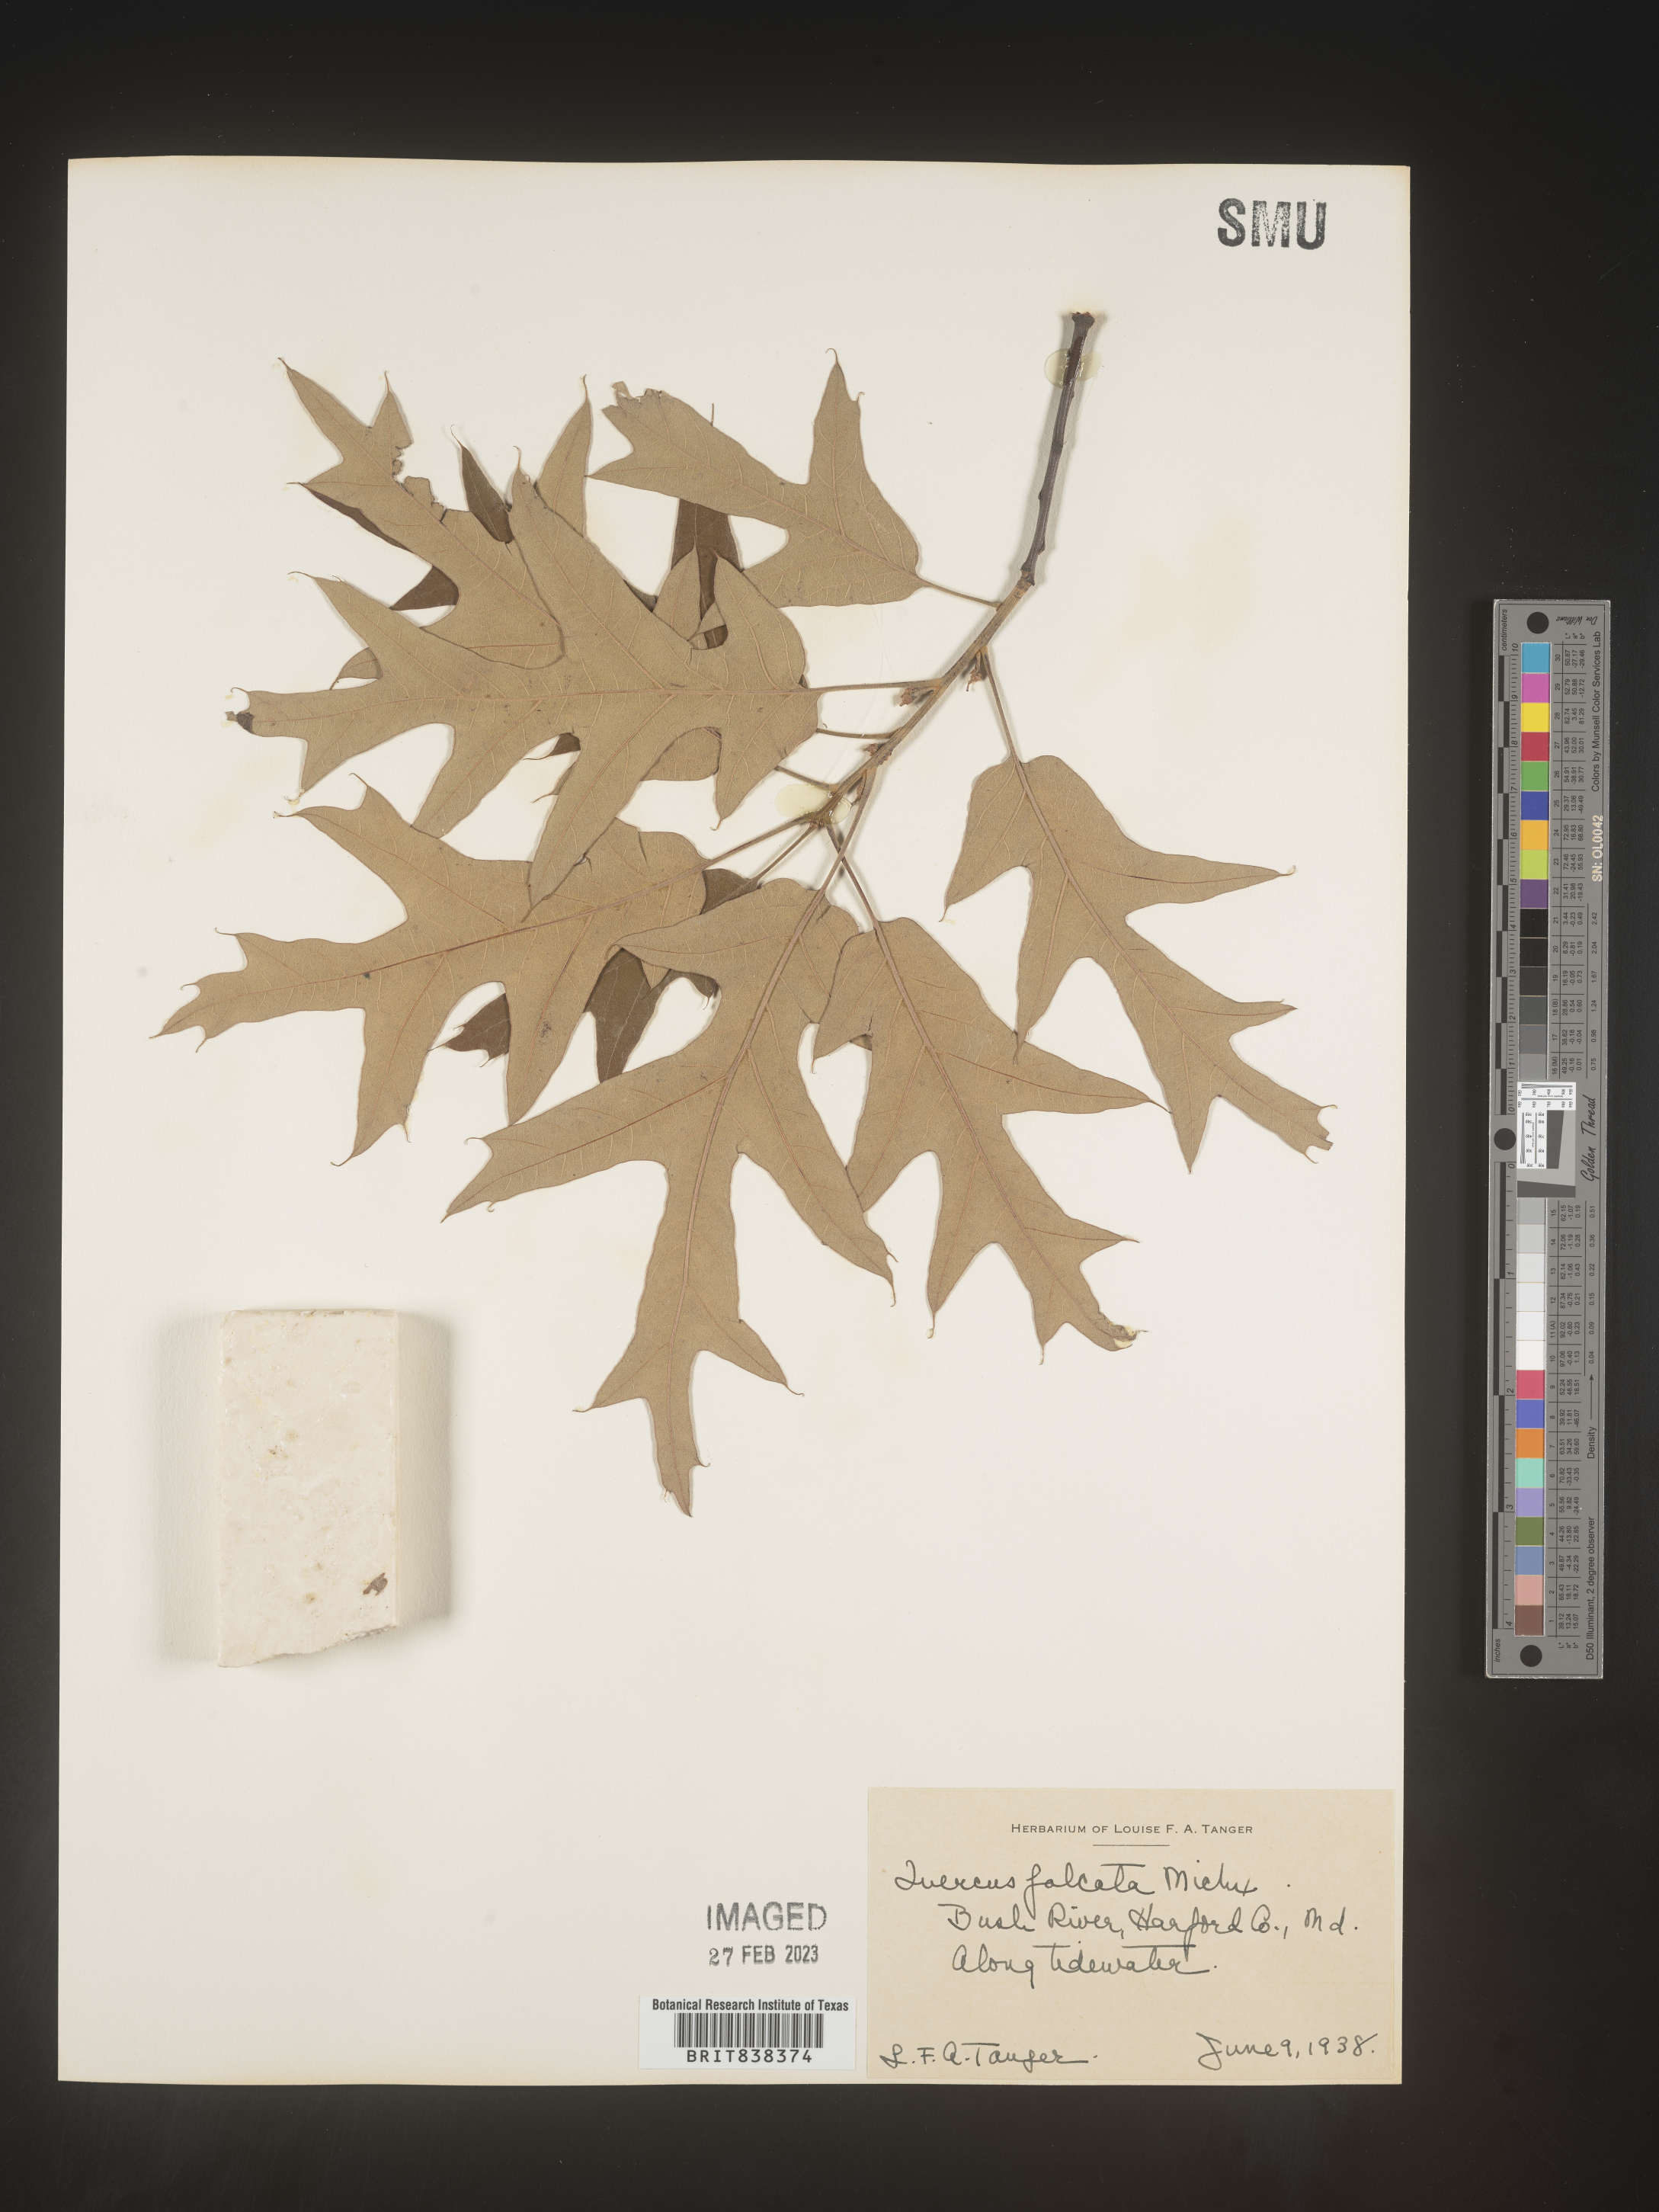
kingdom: Plantae
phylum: Tracheophyta
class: Magnoliopsida
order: Fagales
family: Fagaceae
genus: Quercus
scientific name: Quercus falcata
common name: Southern red oak
